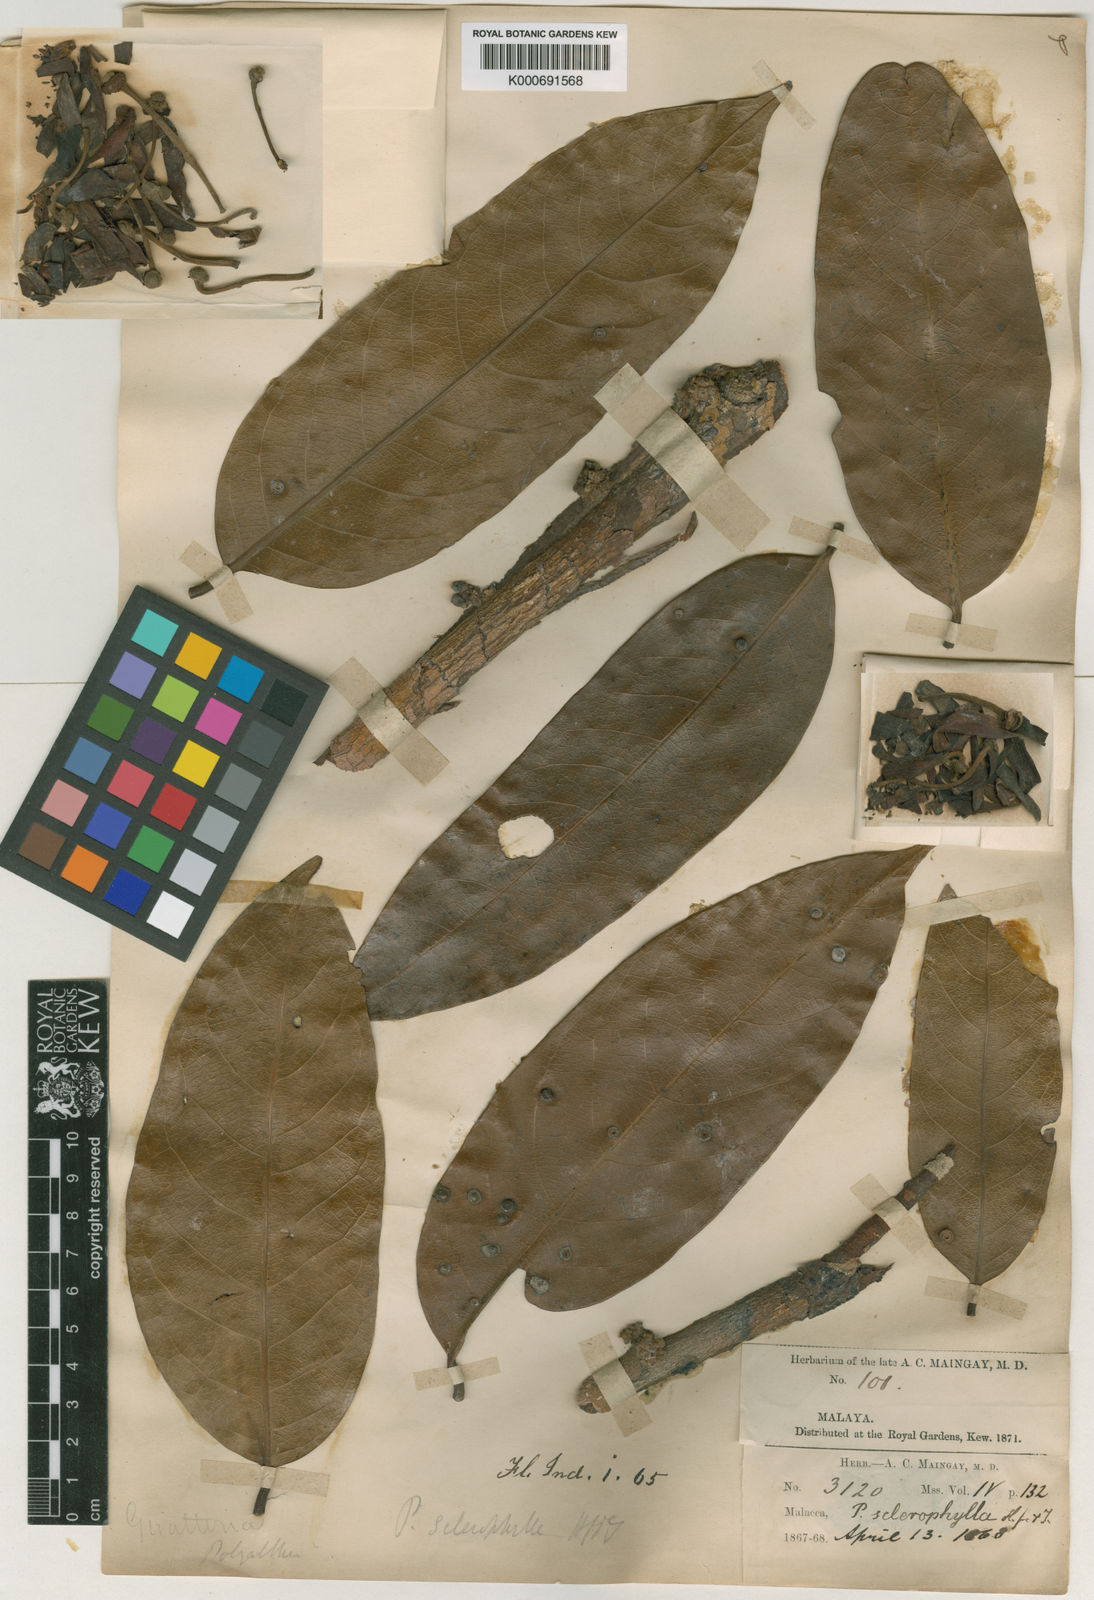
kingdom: Plantae
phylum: Tracheophyta
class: Magnoliopsida
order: Magnoliales
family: Annonaceae
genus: Polyalthia
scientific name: Polyalthia sclerophylla
